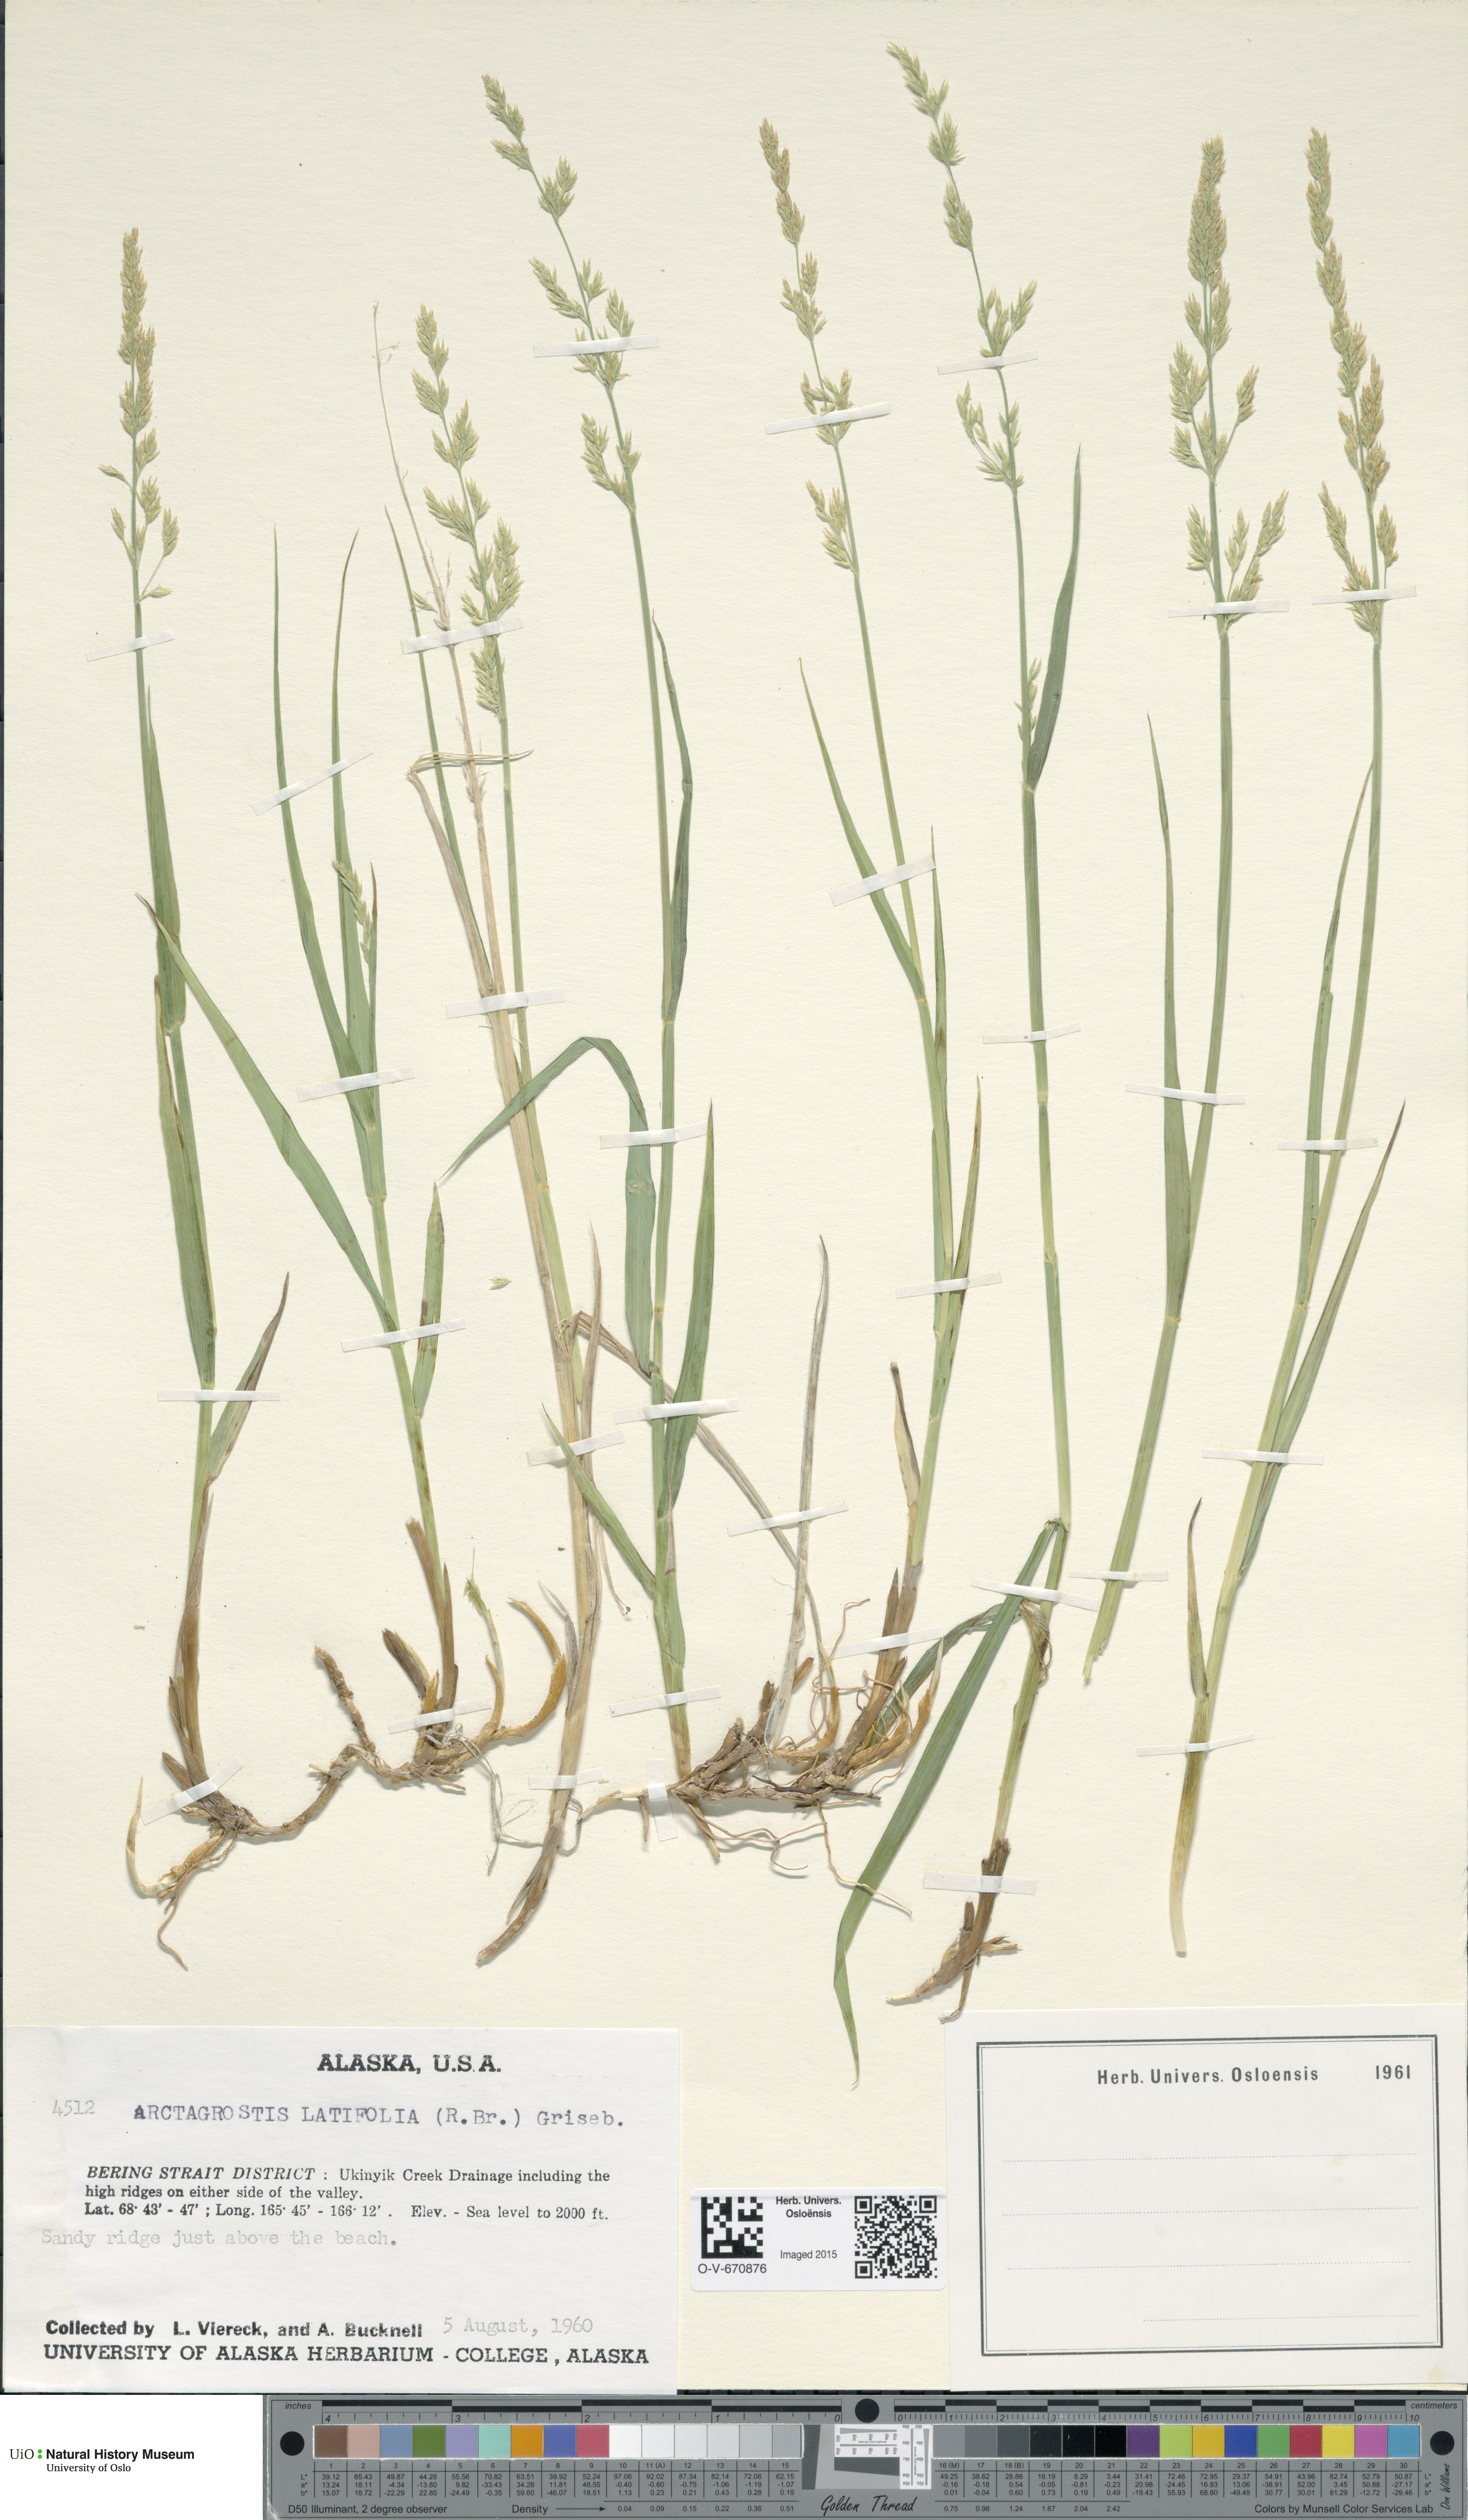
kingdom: Plantae
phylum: Tracheophyta
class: Liliopsida
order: Poales
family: Poaceae
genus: Arctagrostis
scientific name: Arctagrostis latifolia
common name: Arctic grass
